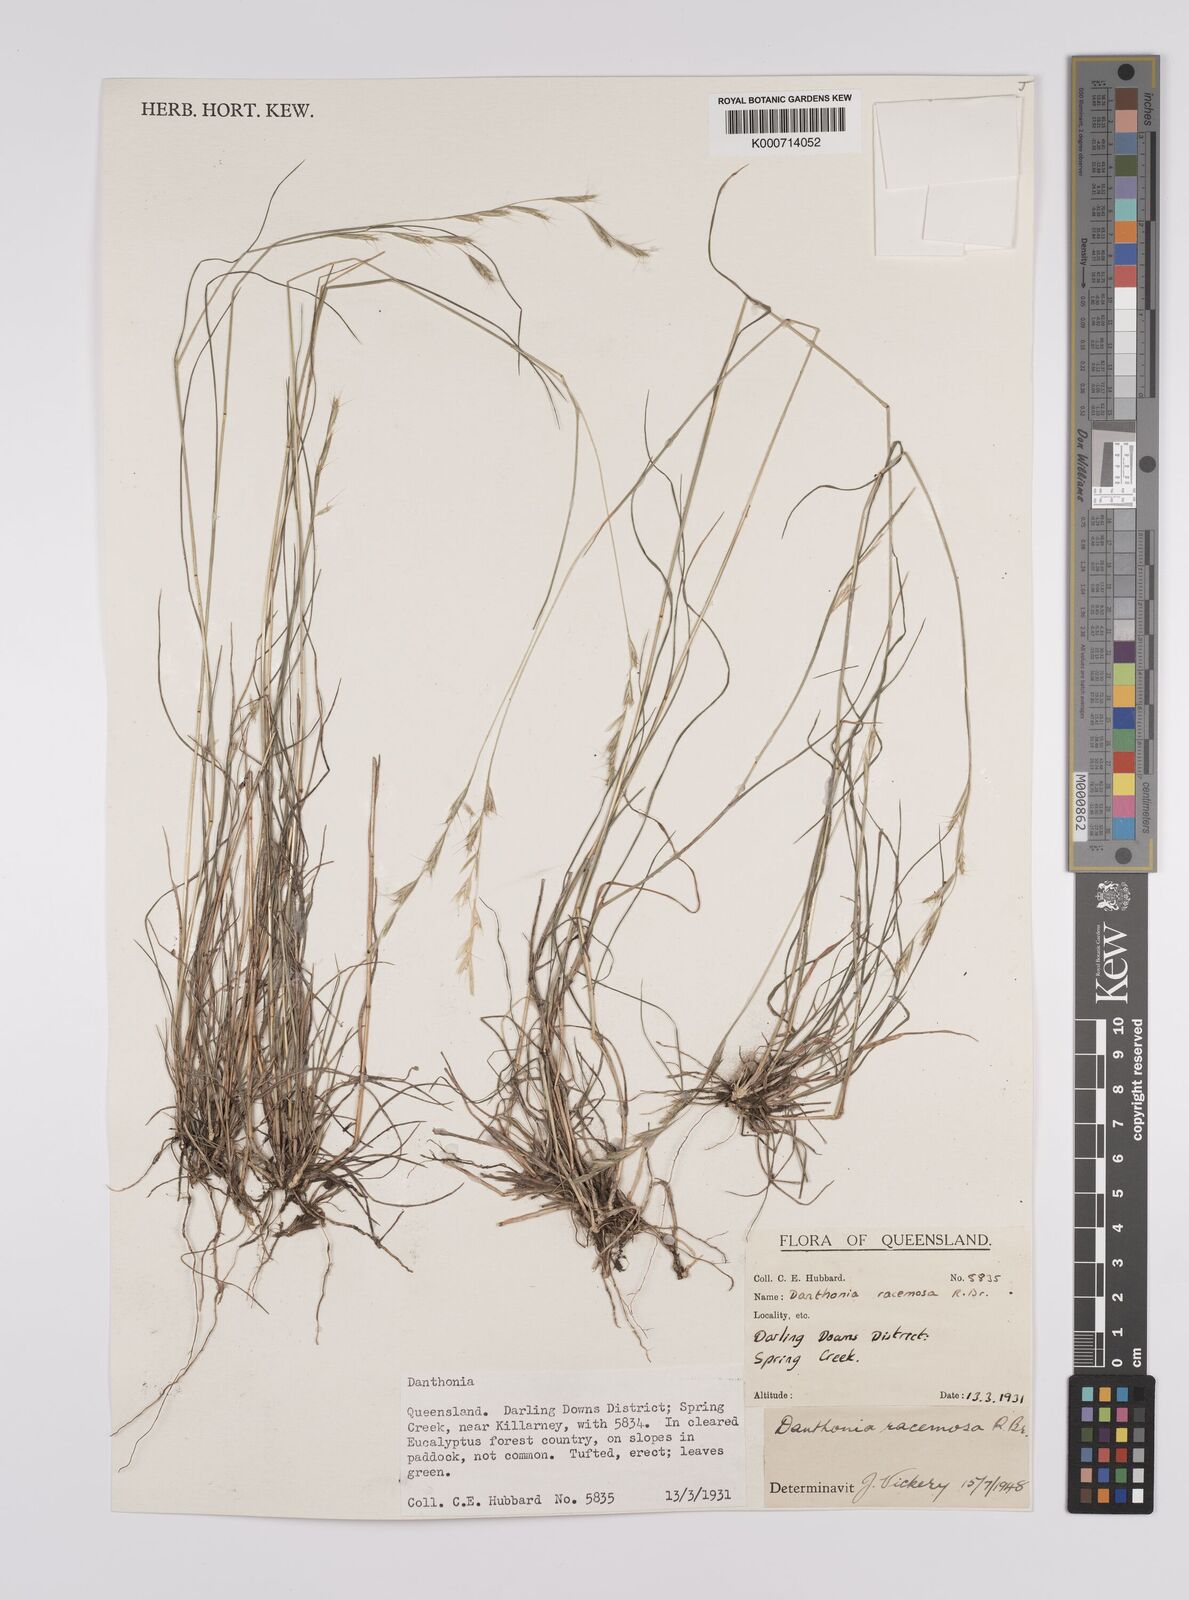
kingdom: Plantae
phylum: Tracheophyta
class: Liliopsida
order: Poales
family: Poaceae
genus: Rytidosperma
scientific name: Rytidosperma racemosum
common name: Wallaby-grass
